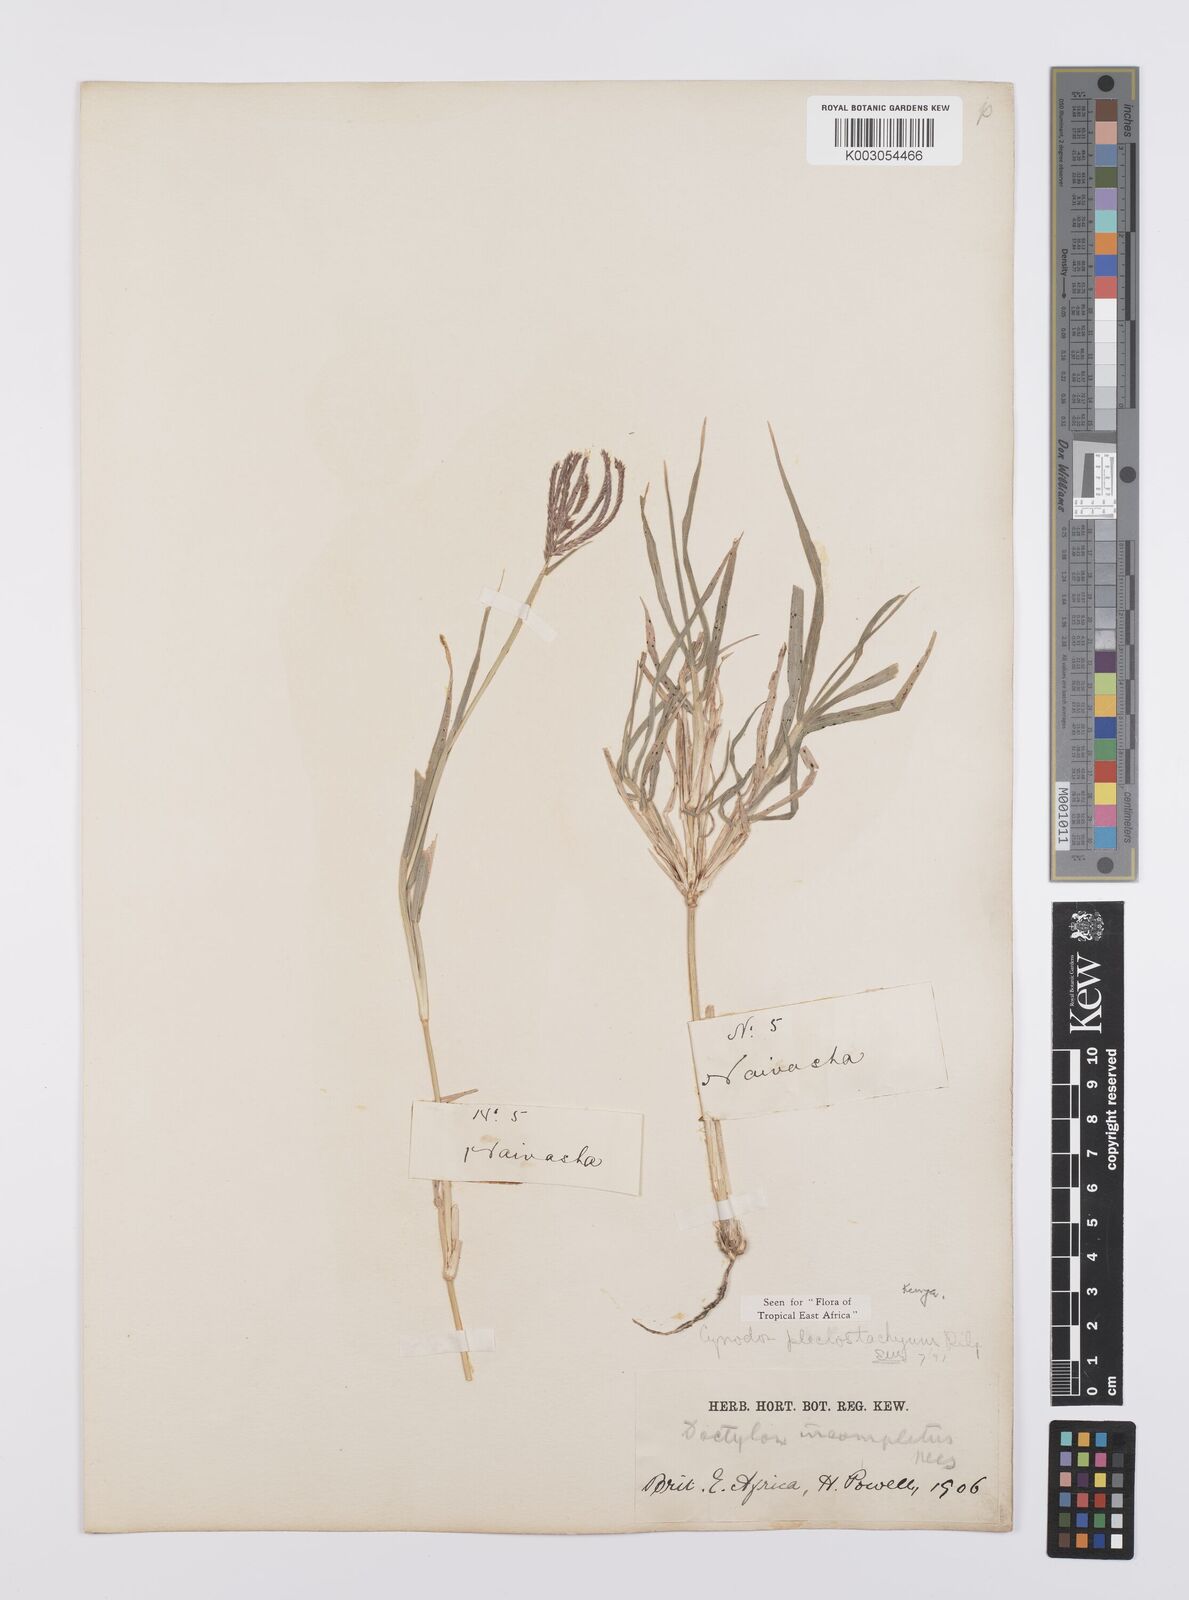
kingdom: Plantae
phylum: Tracheophyta
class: Liliopsida
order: Poales
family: Poaceae
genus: Cynodon
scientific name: Cynodon plectostachyus
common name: Stargrass
